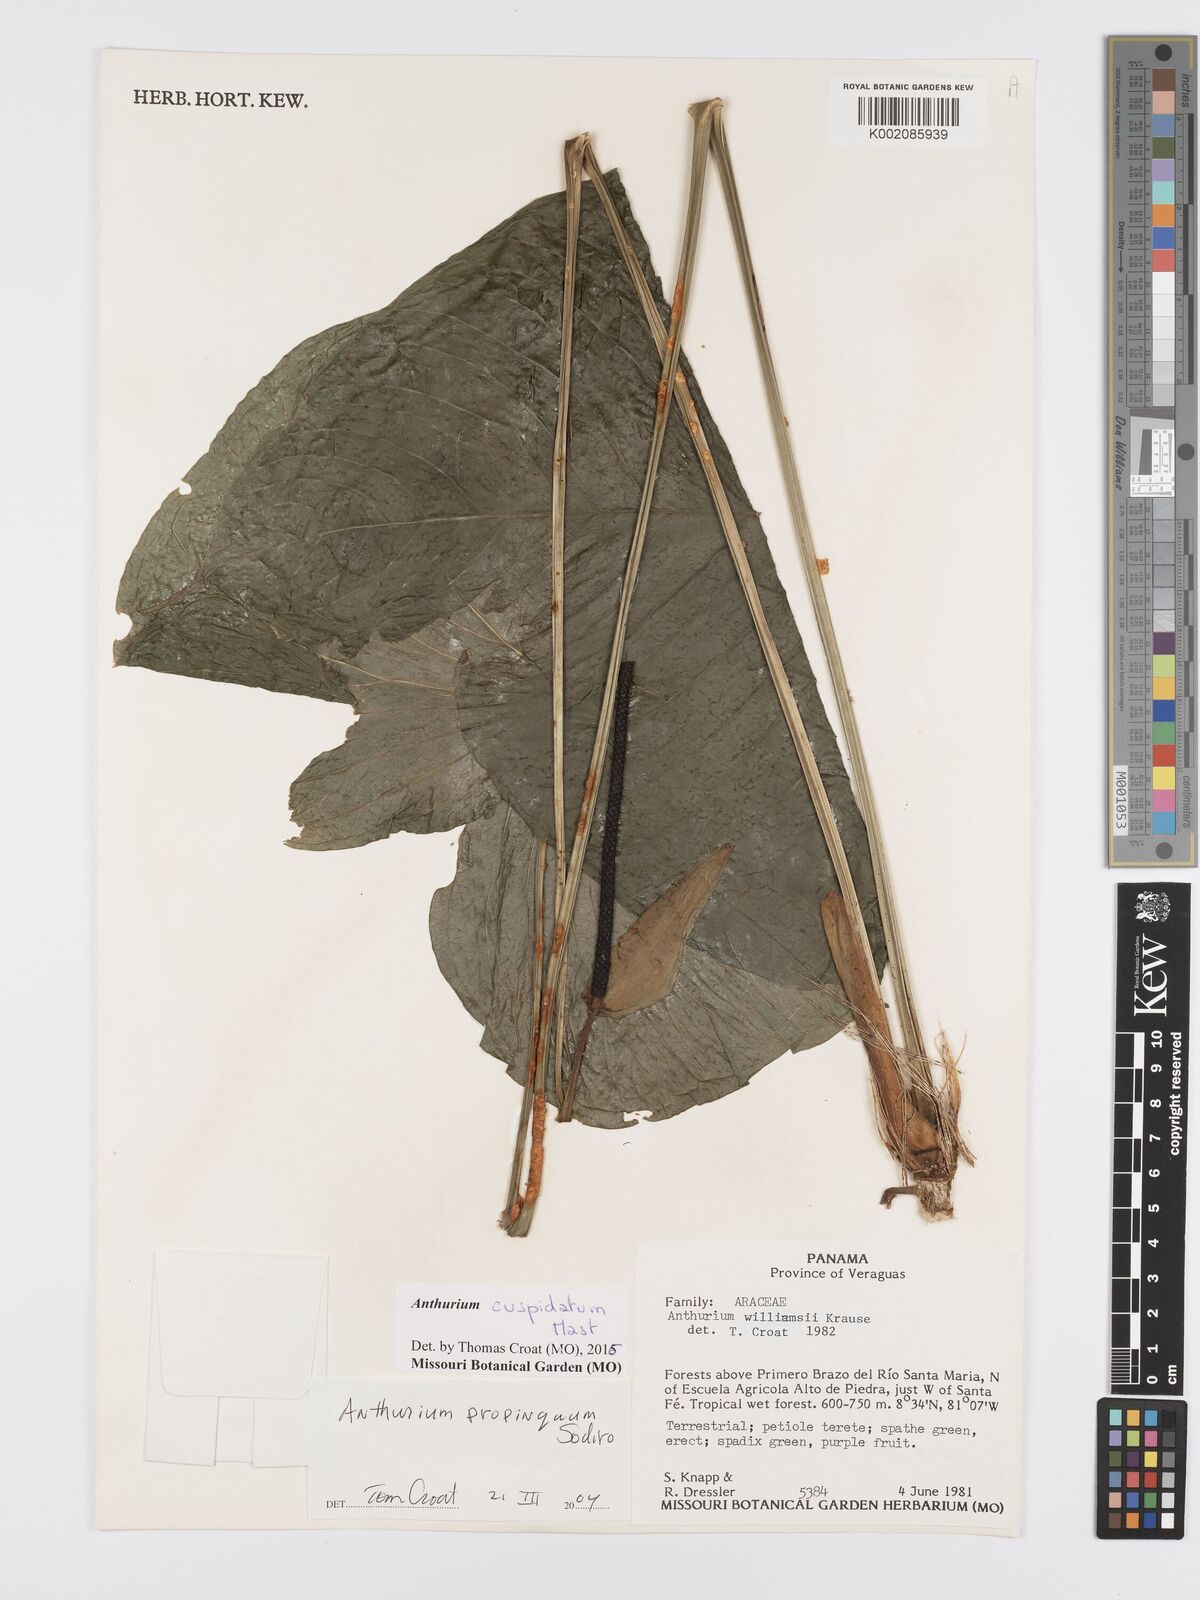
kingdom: Plantae
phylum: Tracheophyta
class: Liliopsida
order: Alismatales
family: Araceae
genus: Anthurium
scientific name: Anthurium cuspidatum
